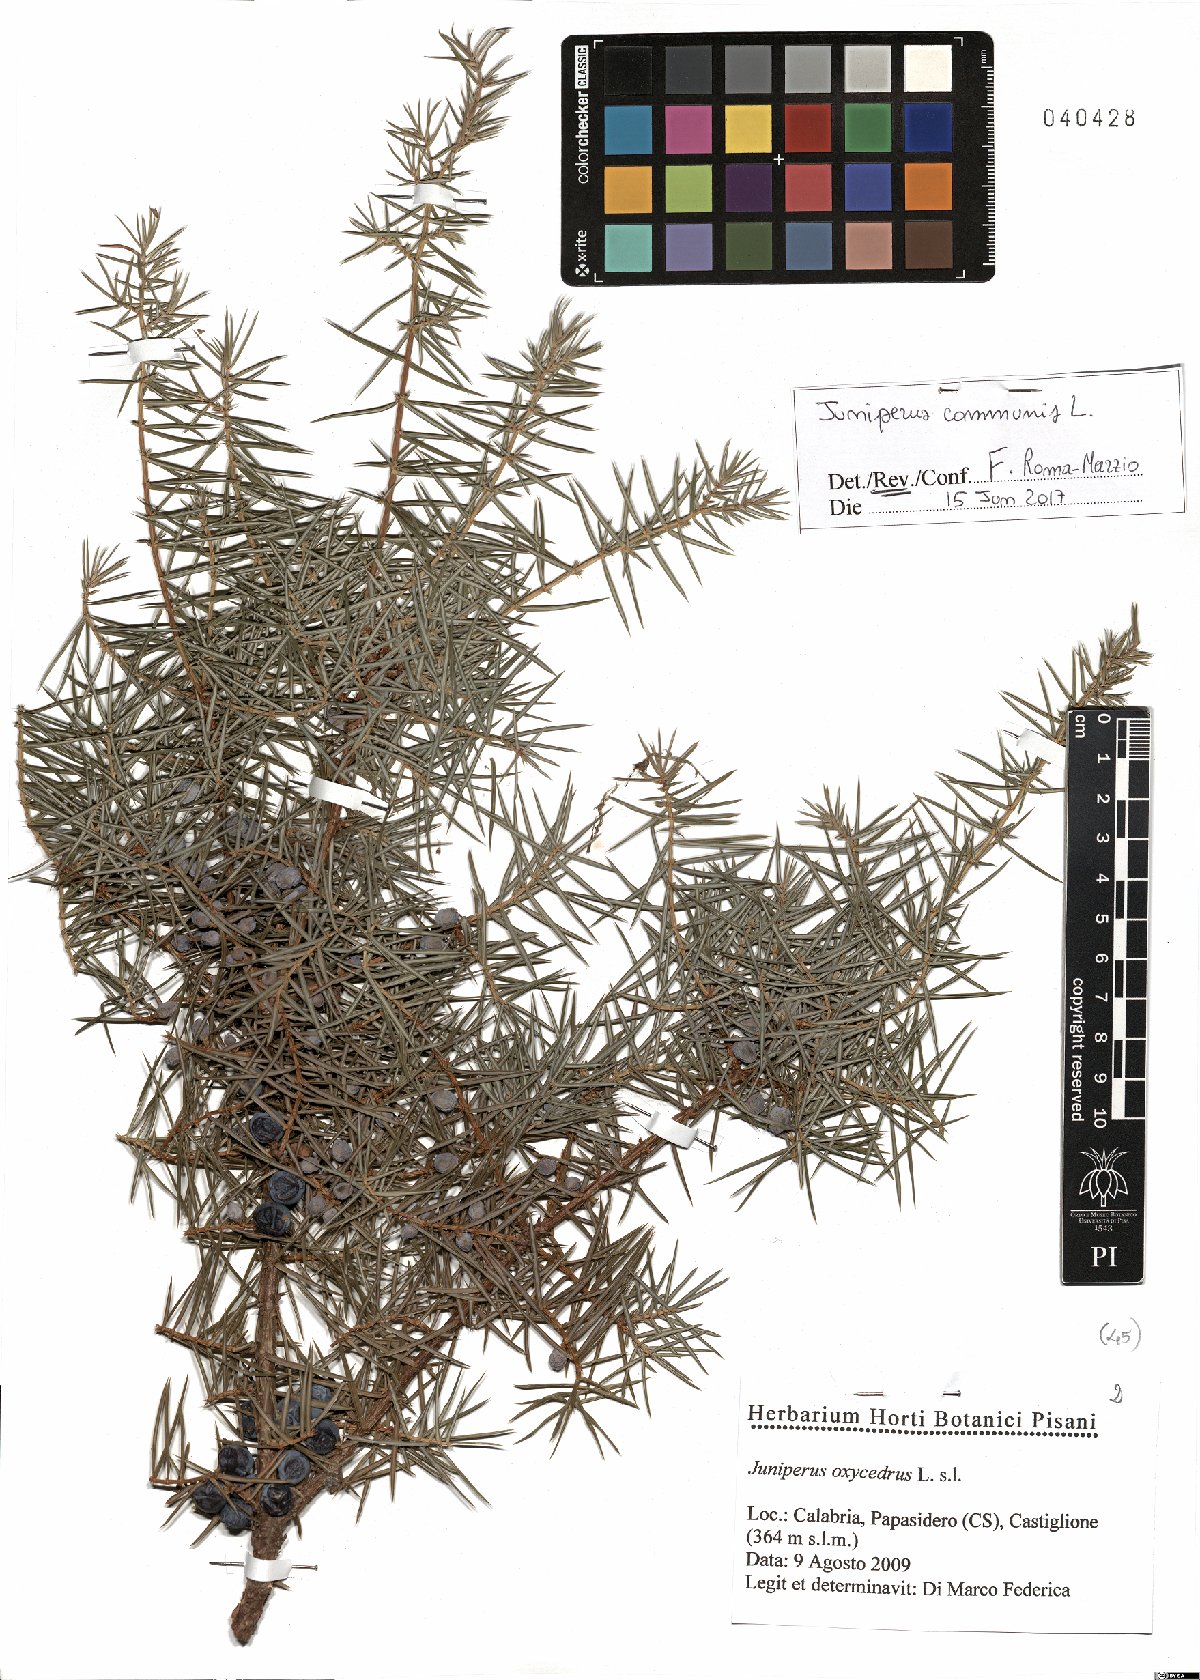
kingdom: Plantae
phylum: Tracheophyta
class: Pinopsida
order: Pinales
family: Cupressaceae
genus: Juniperus
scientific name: Juniperus communis
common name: Common juniper
